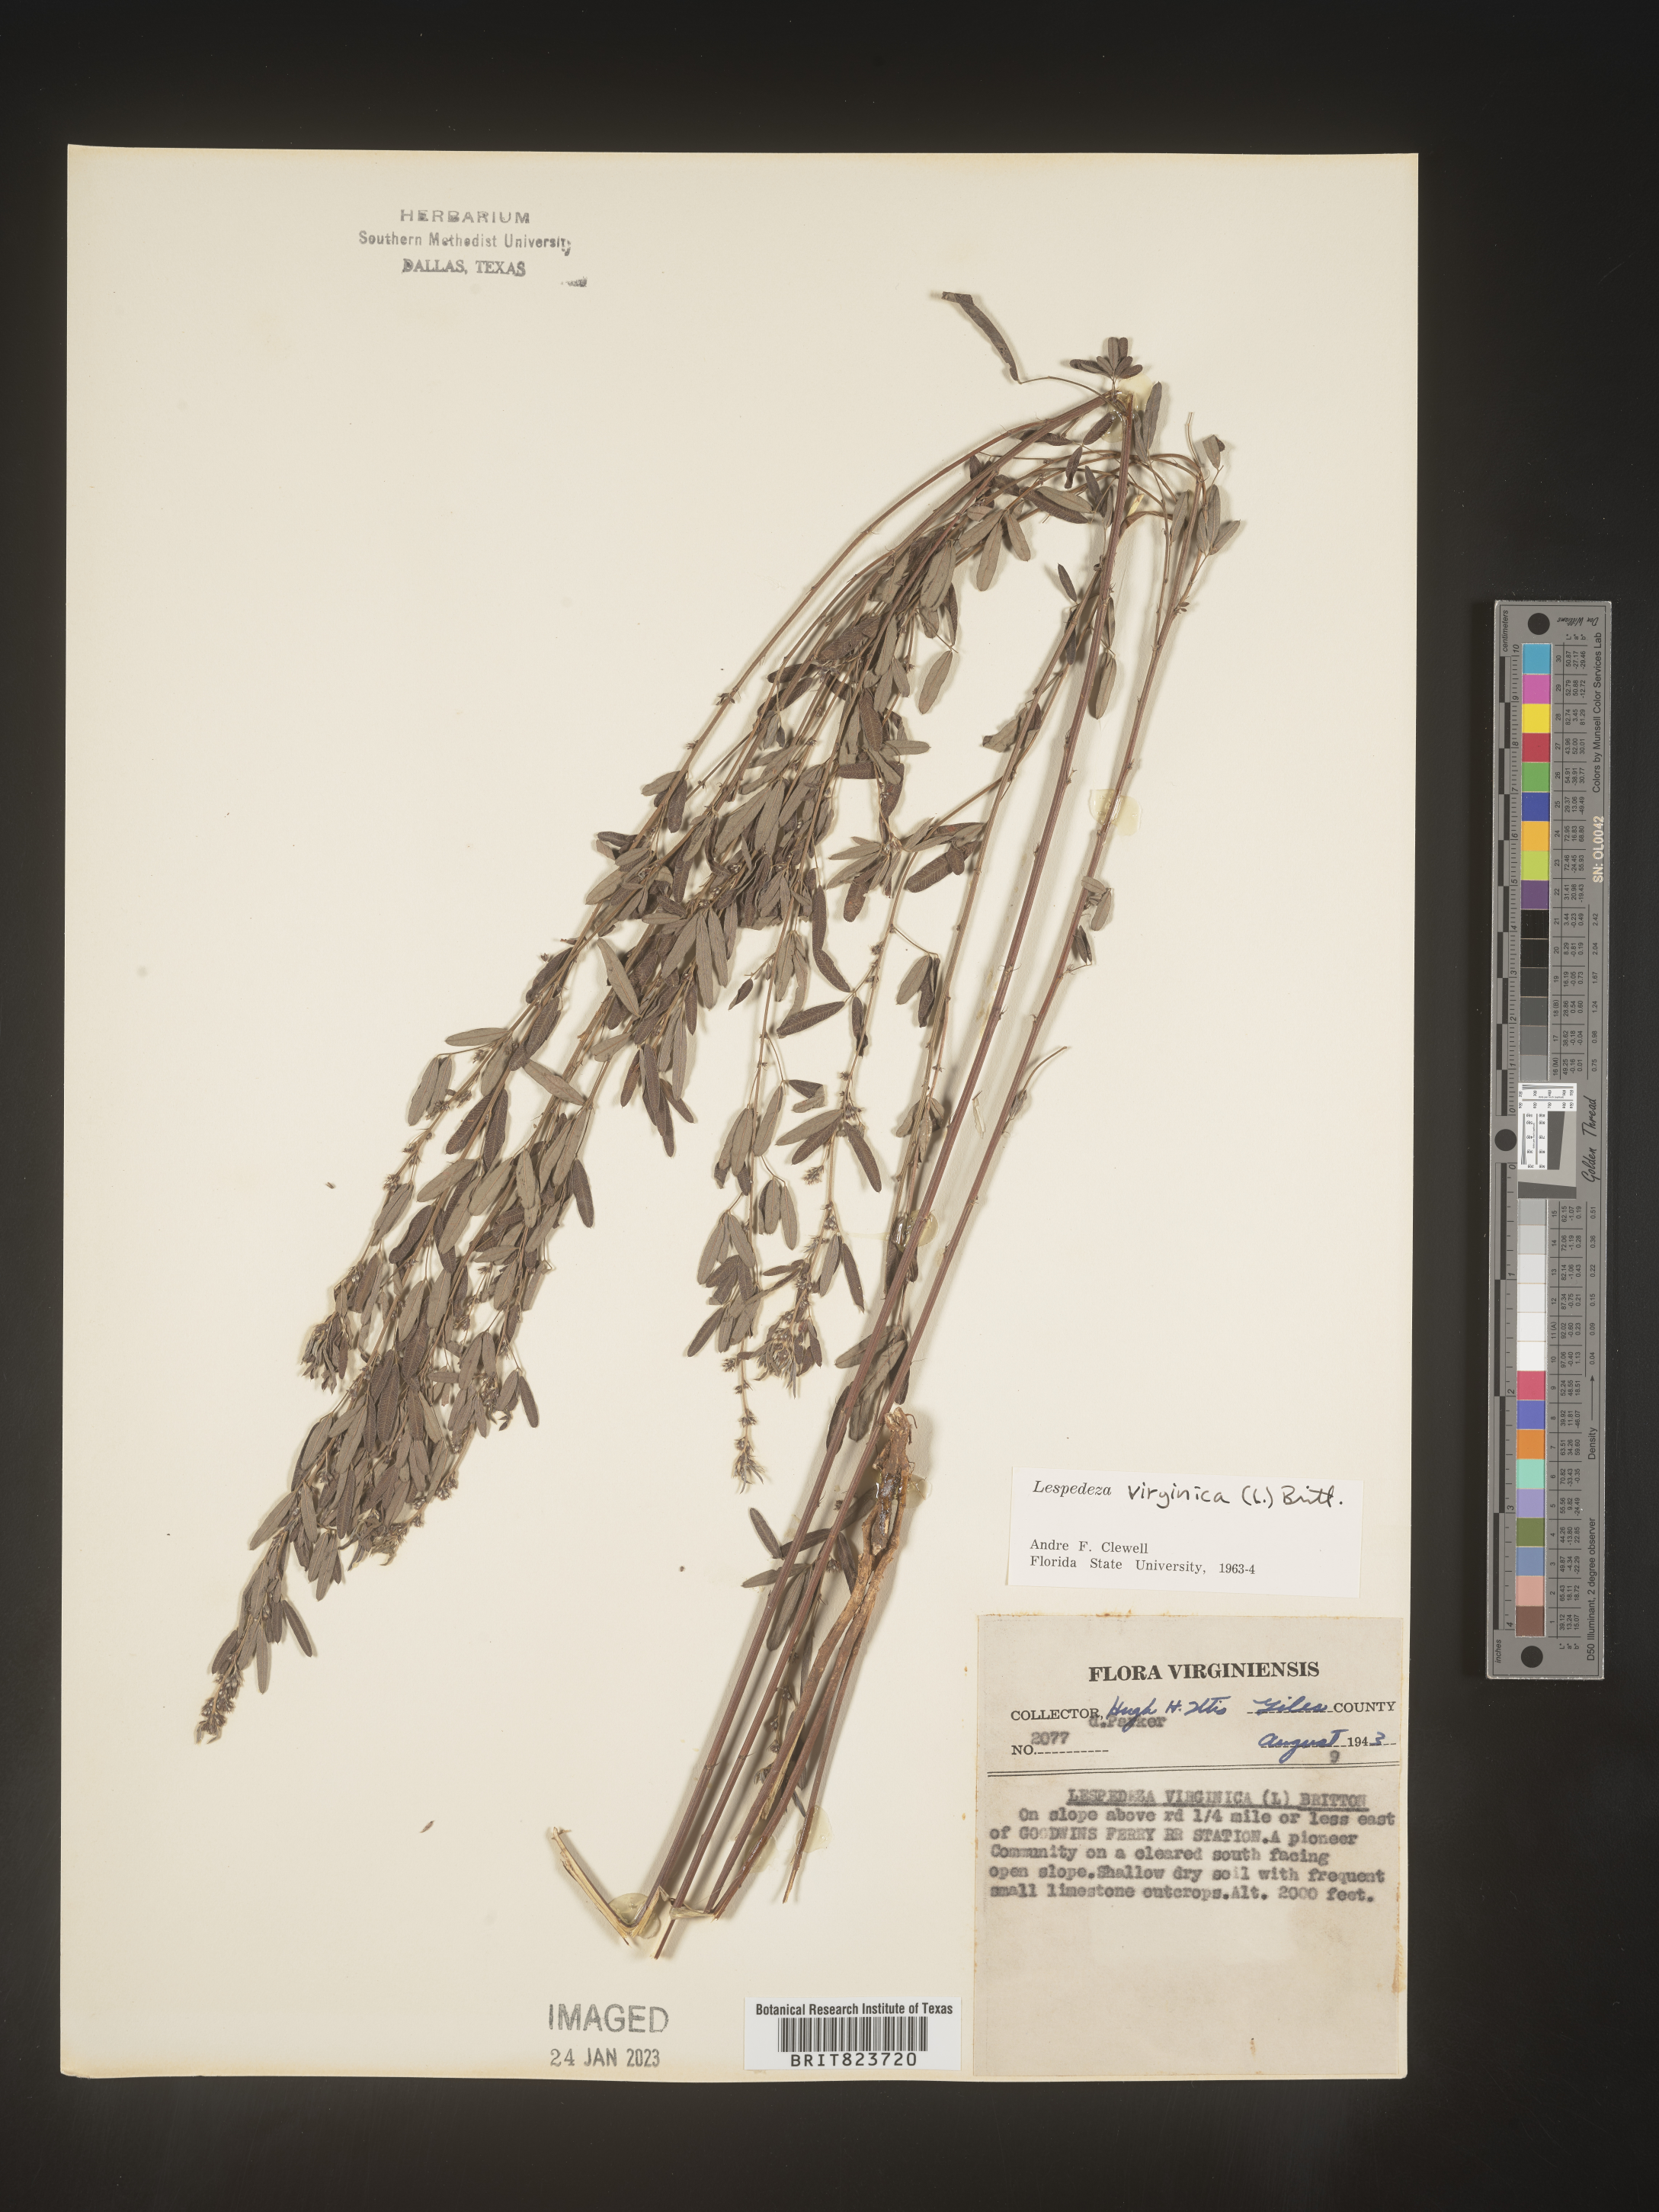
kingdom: Plantae
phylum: Tracheophyta
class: Magnoliopsida
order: Fabales
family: Fabaceae
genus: Lespedeza
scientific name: Lespedeza virginica
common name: Slender bush-clover
